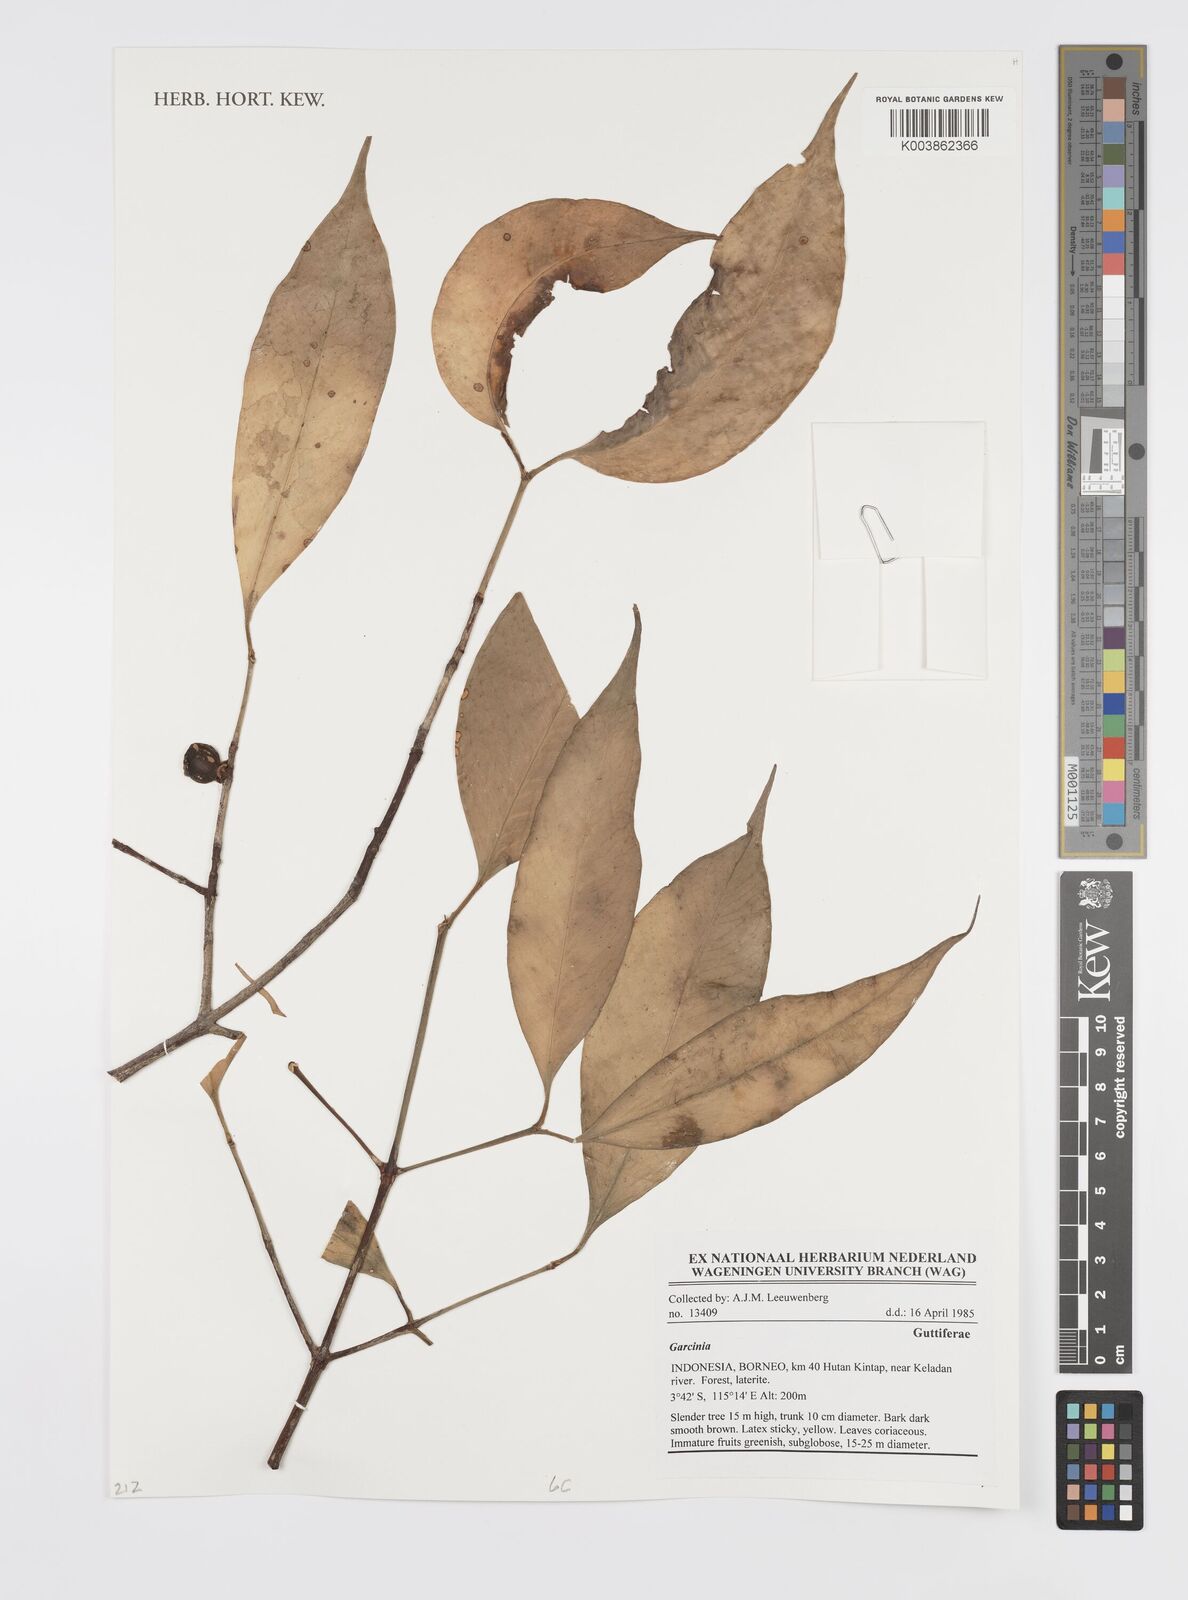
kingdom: Plantae
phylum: Tracheophyta
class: Magnoliopsida
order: Malpighiales
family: Clusiaceae
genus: Garcinia
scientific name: Garcinia
